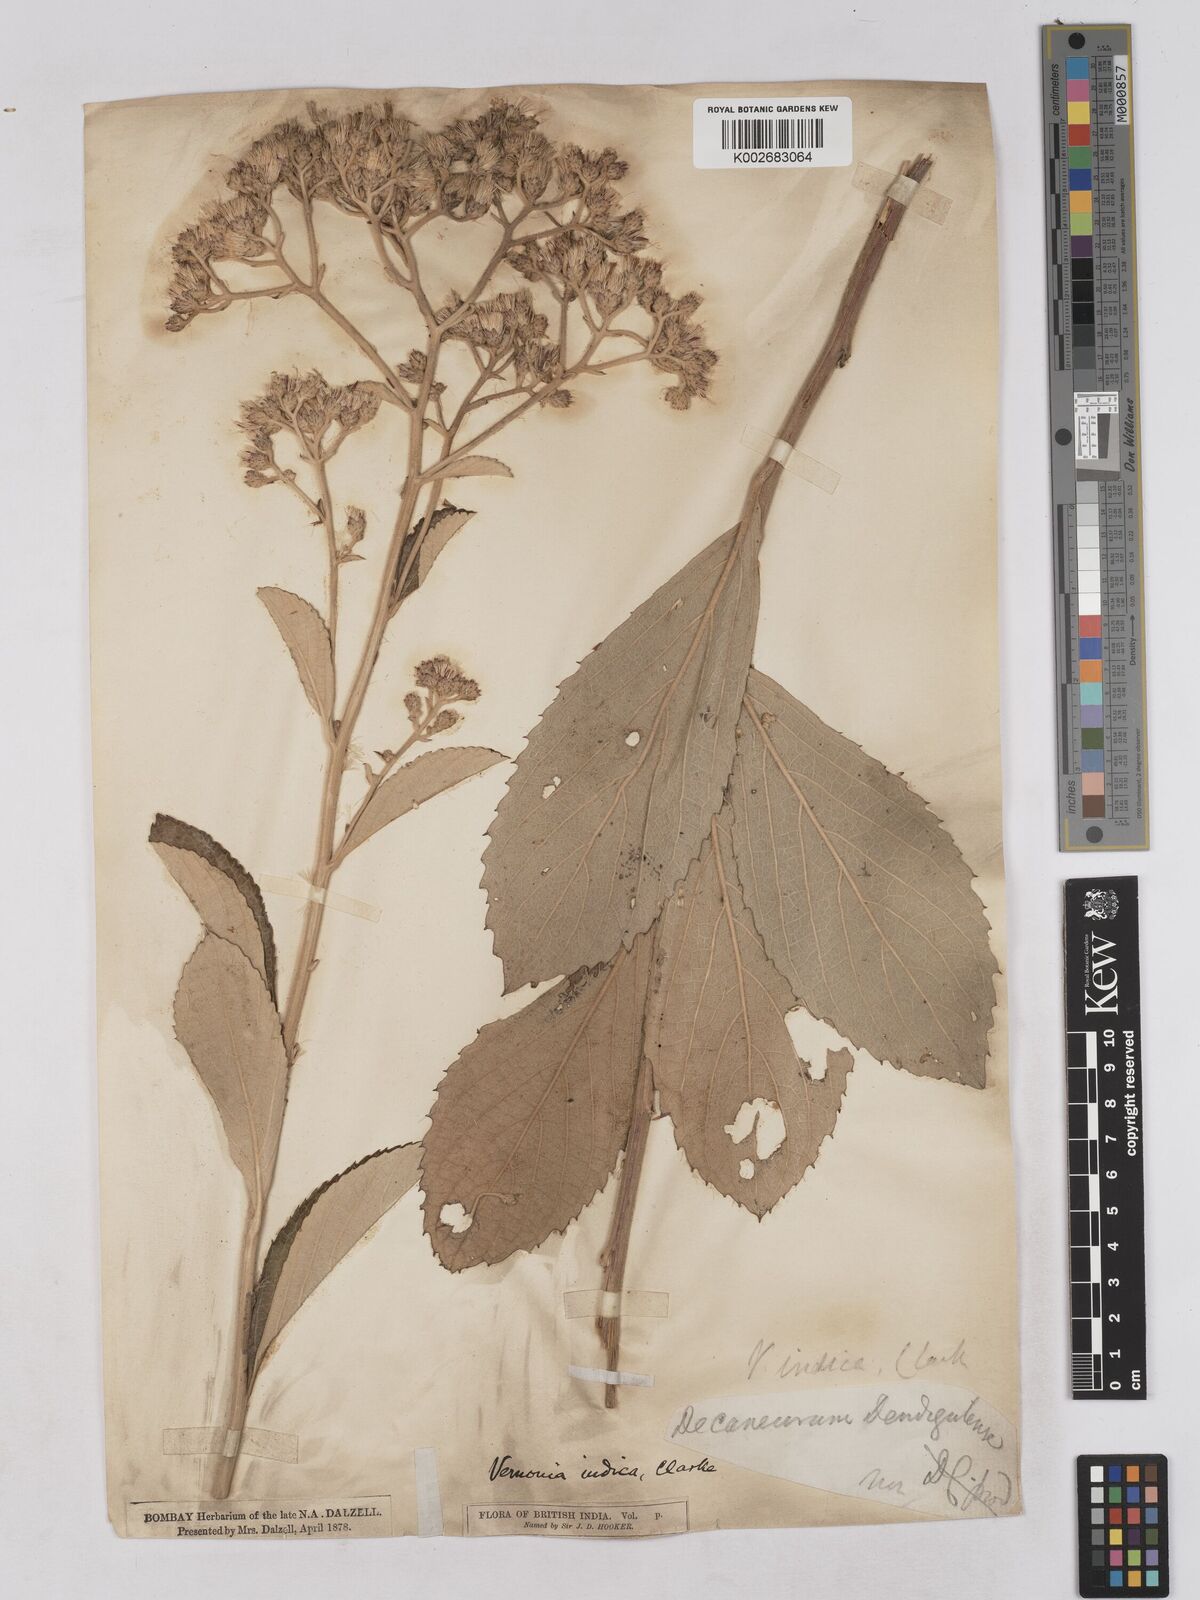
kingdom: Plantae
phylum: Tracheophyta
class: Magnoliopsida
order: Asterales
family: Asteraceae
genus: Acilepis
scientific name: Acilepis dendigulensis
